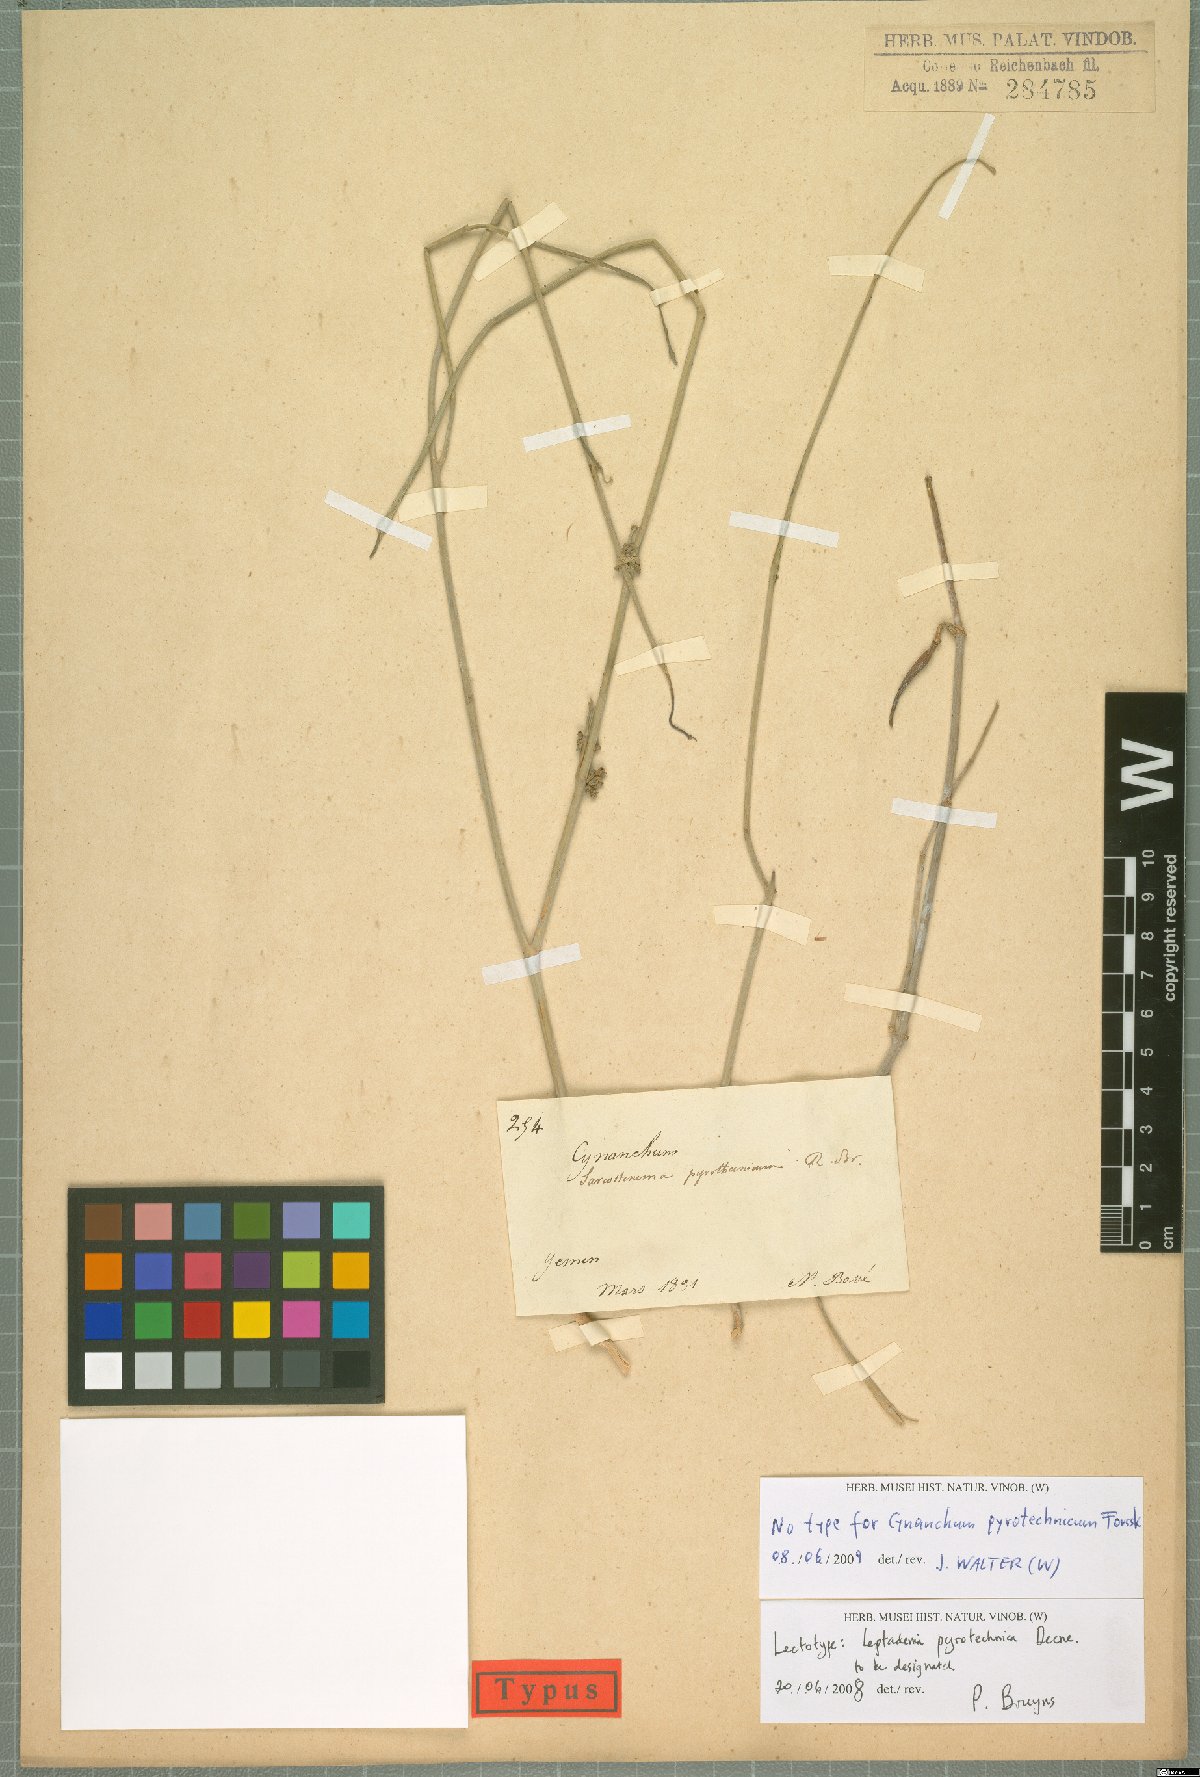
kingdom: Plantae
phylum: Tracheophyta
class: Magnoliopsida
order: Gentianales
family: Apocynaceae
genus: Leptadenia
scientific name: Leptadenia pyrotechnica
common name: Broom brush
